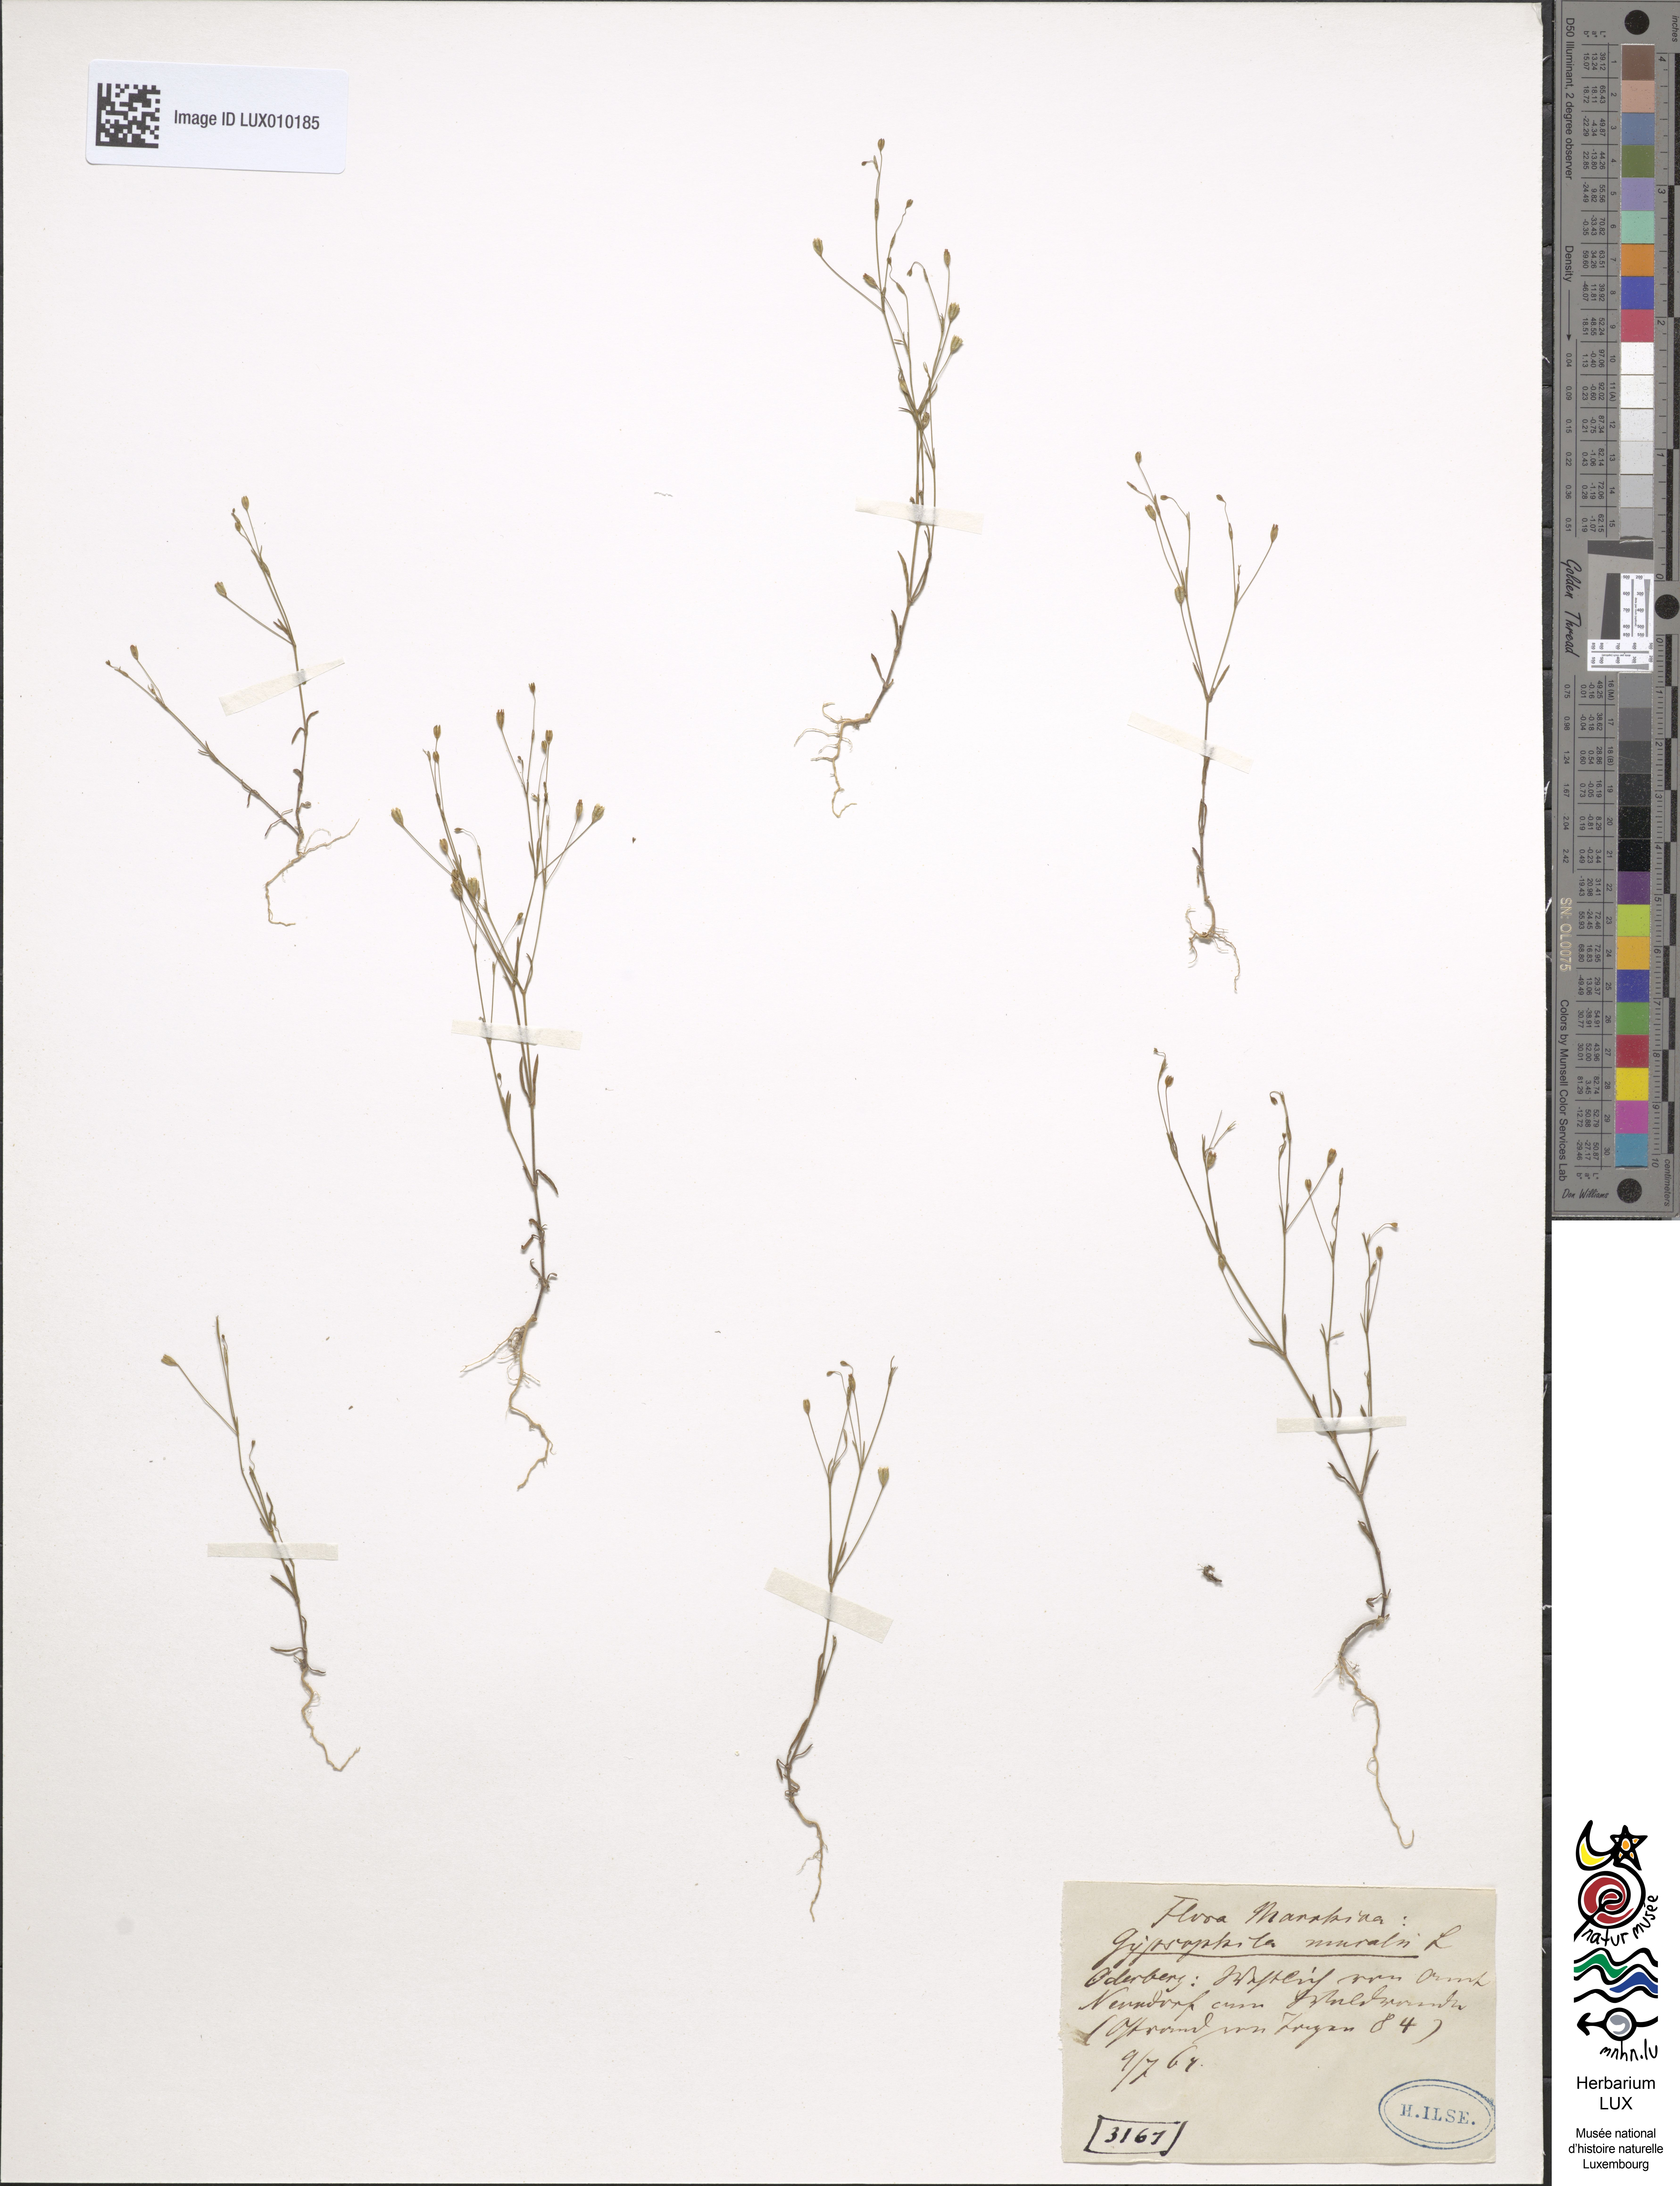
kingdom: Plantae
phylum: Tracheophyta
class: Magnoliopsida
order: Caryophyllales
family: Caryophyllaceae
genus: Psammophiliella
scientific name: Psammophiliella muralis
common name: Cushion baby's-breath
